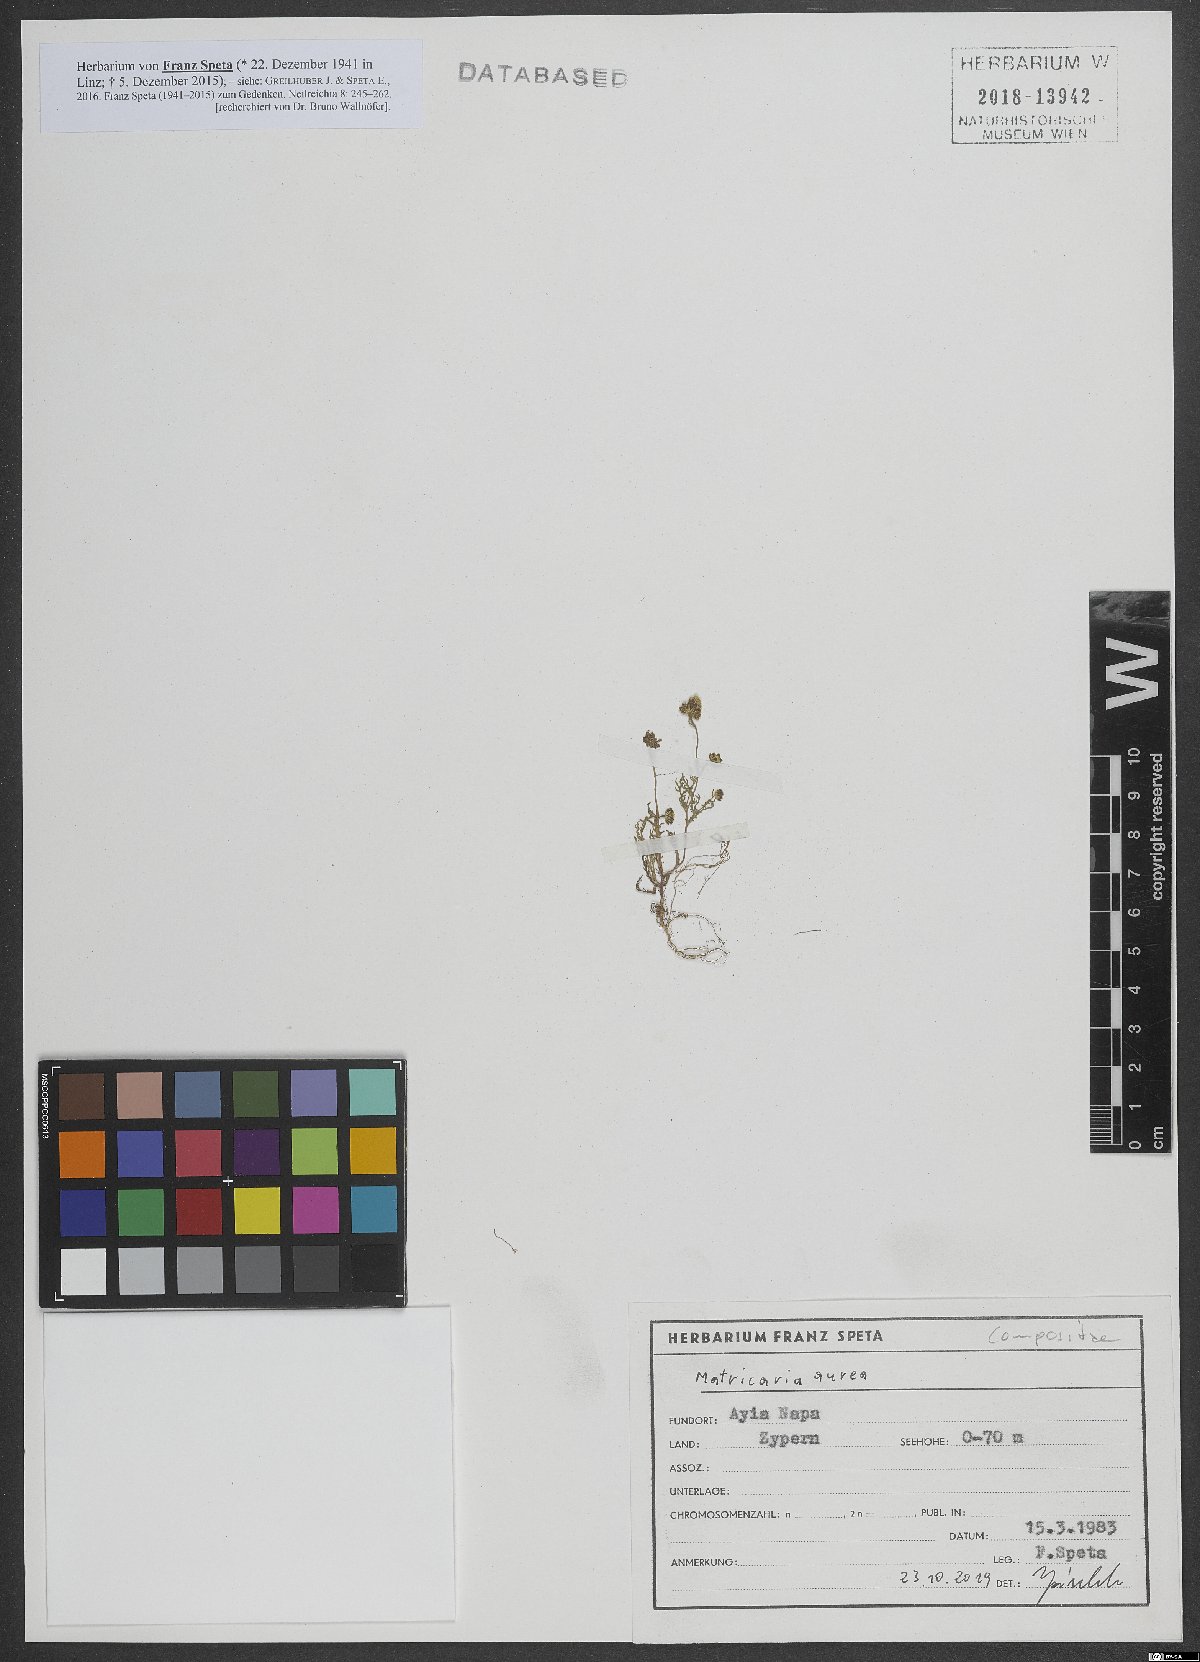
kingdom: Plantae
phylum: Tracheophyta
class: Magnoliopsida
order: Asterales
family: Asteraceae
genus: Matricaria
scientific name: Matricaria aurea
